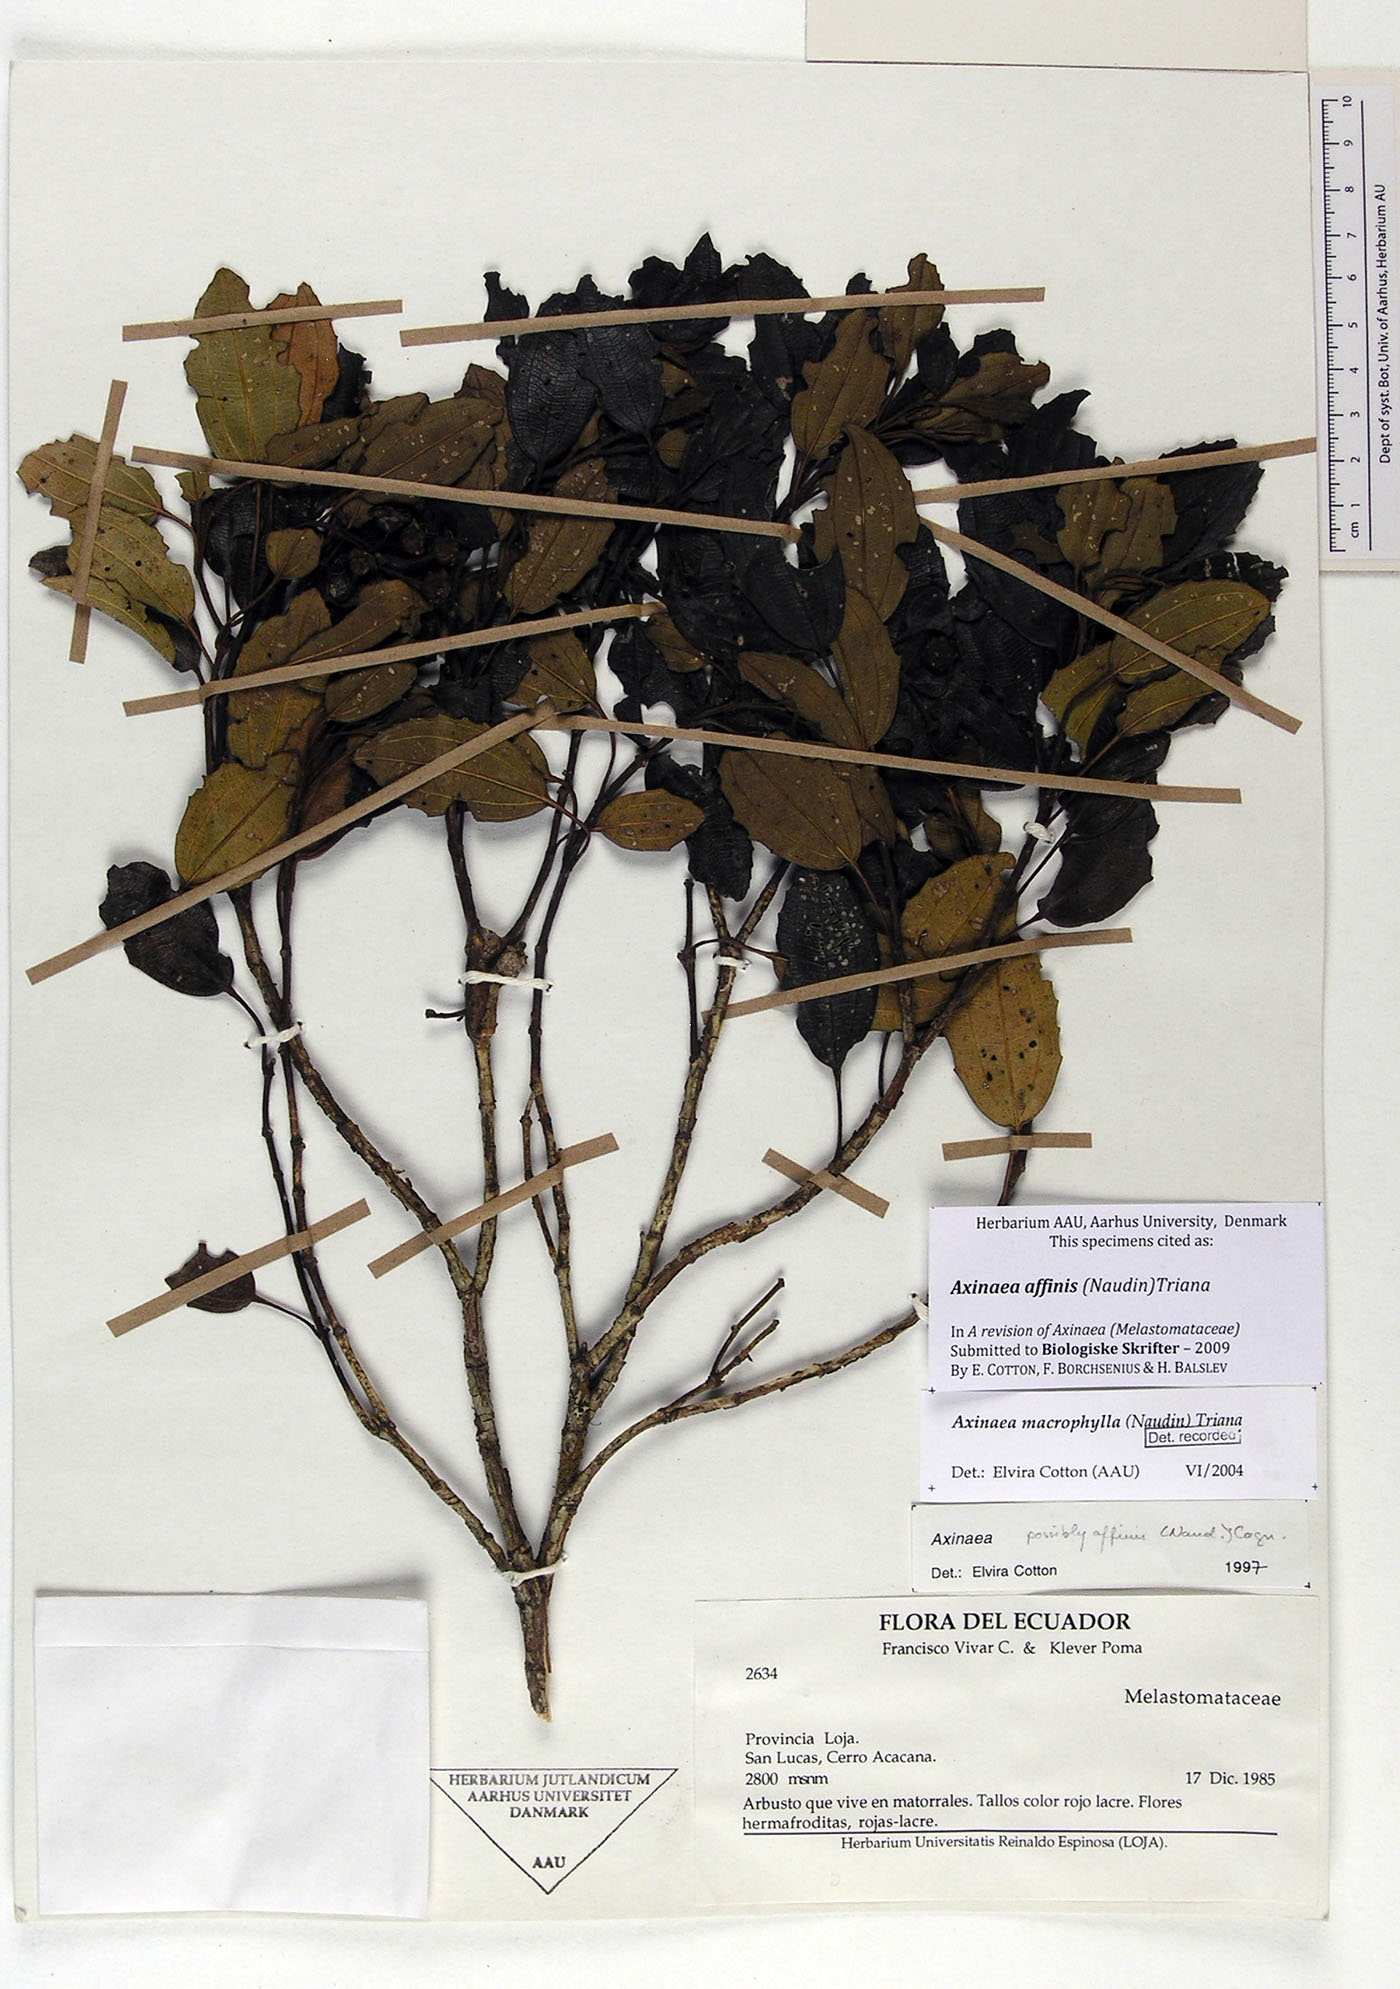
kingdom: Plantae
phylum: Tracheophyta
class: Magnoliopsida
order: Myrtales
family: Melastomataceae
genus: Axinaea
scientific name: Axinaea affinis
